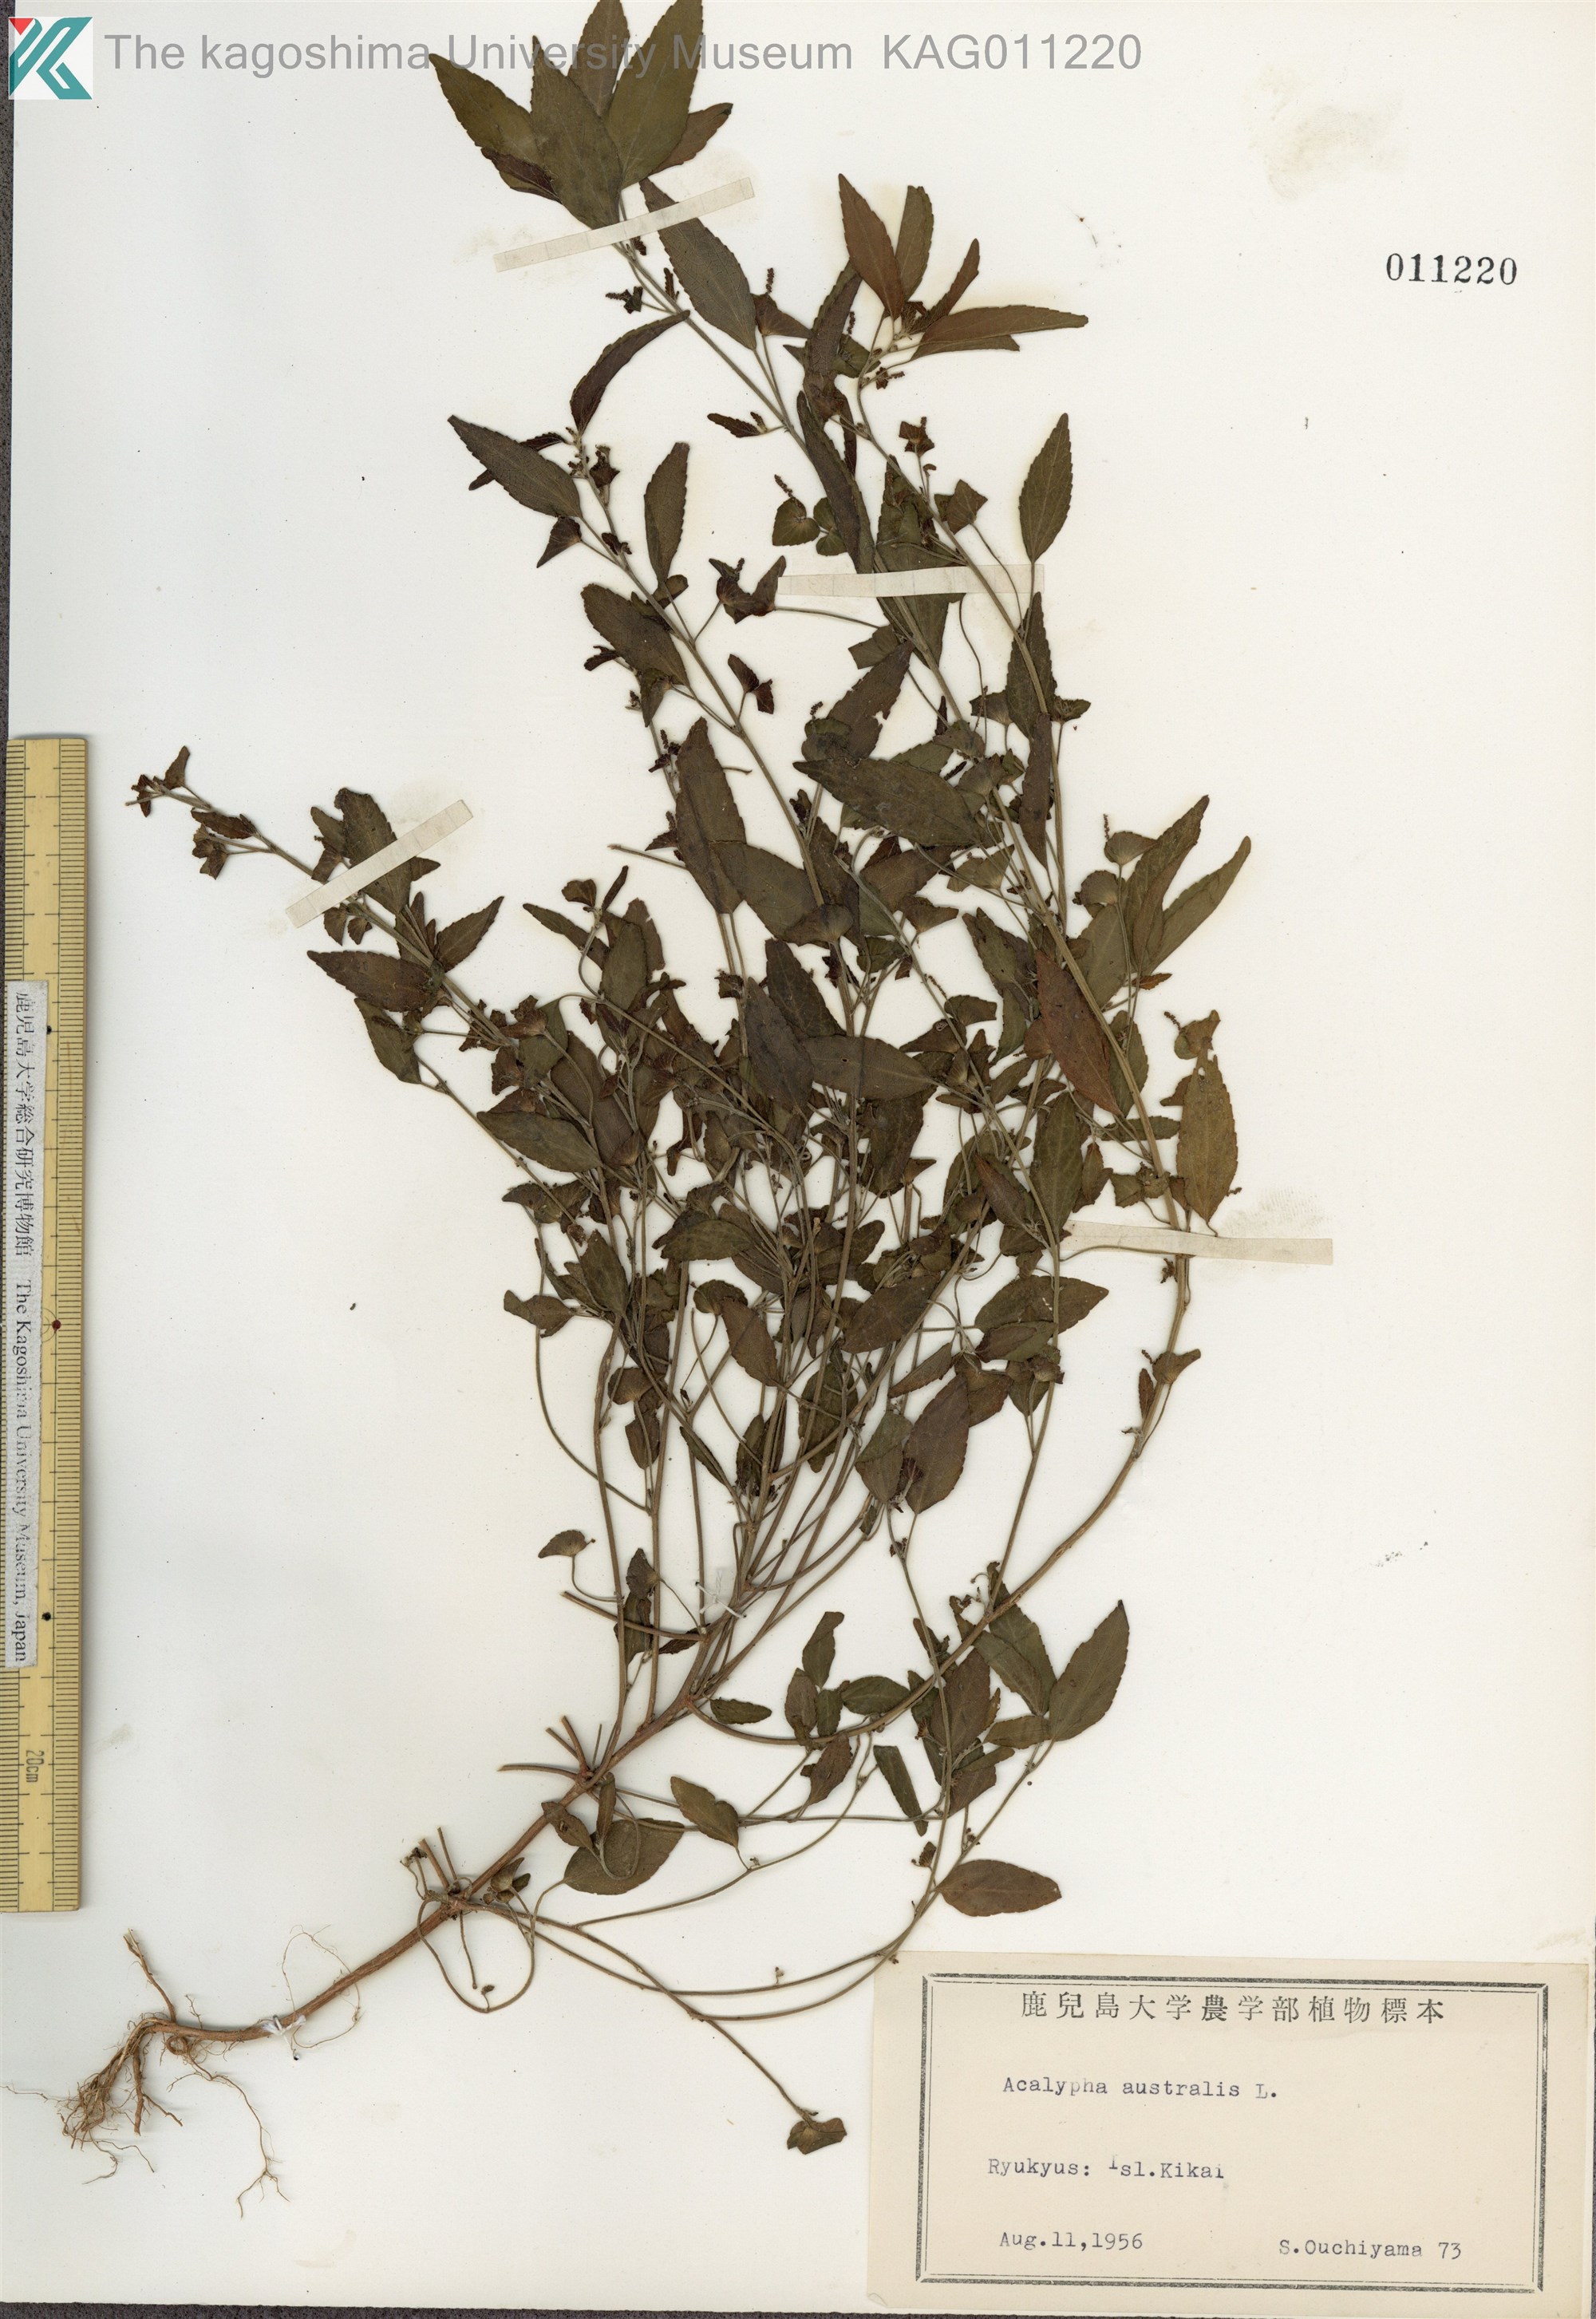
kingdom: Plantae
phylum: Tracheophyta
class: Magnoliopsida
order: Malpighiales
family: Euphorbiaceae
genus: Acalypha
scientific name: Acalypha australis
